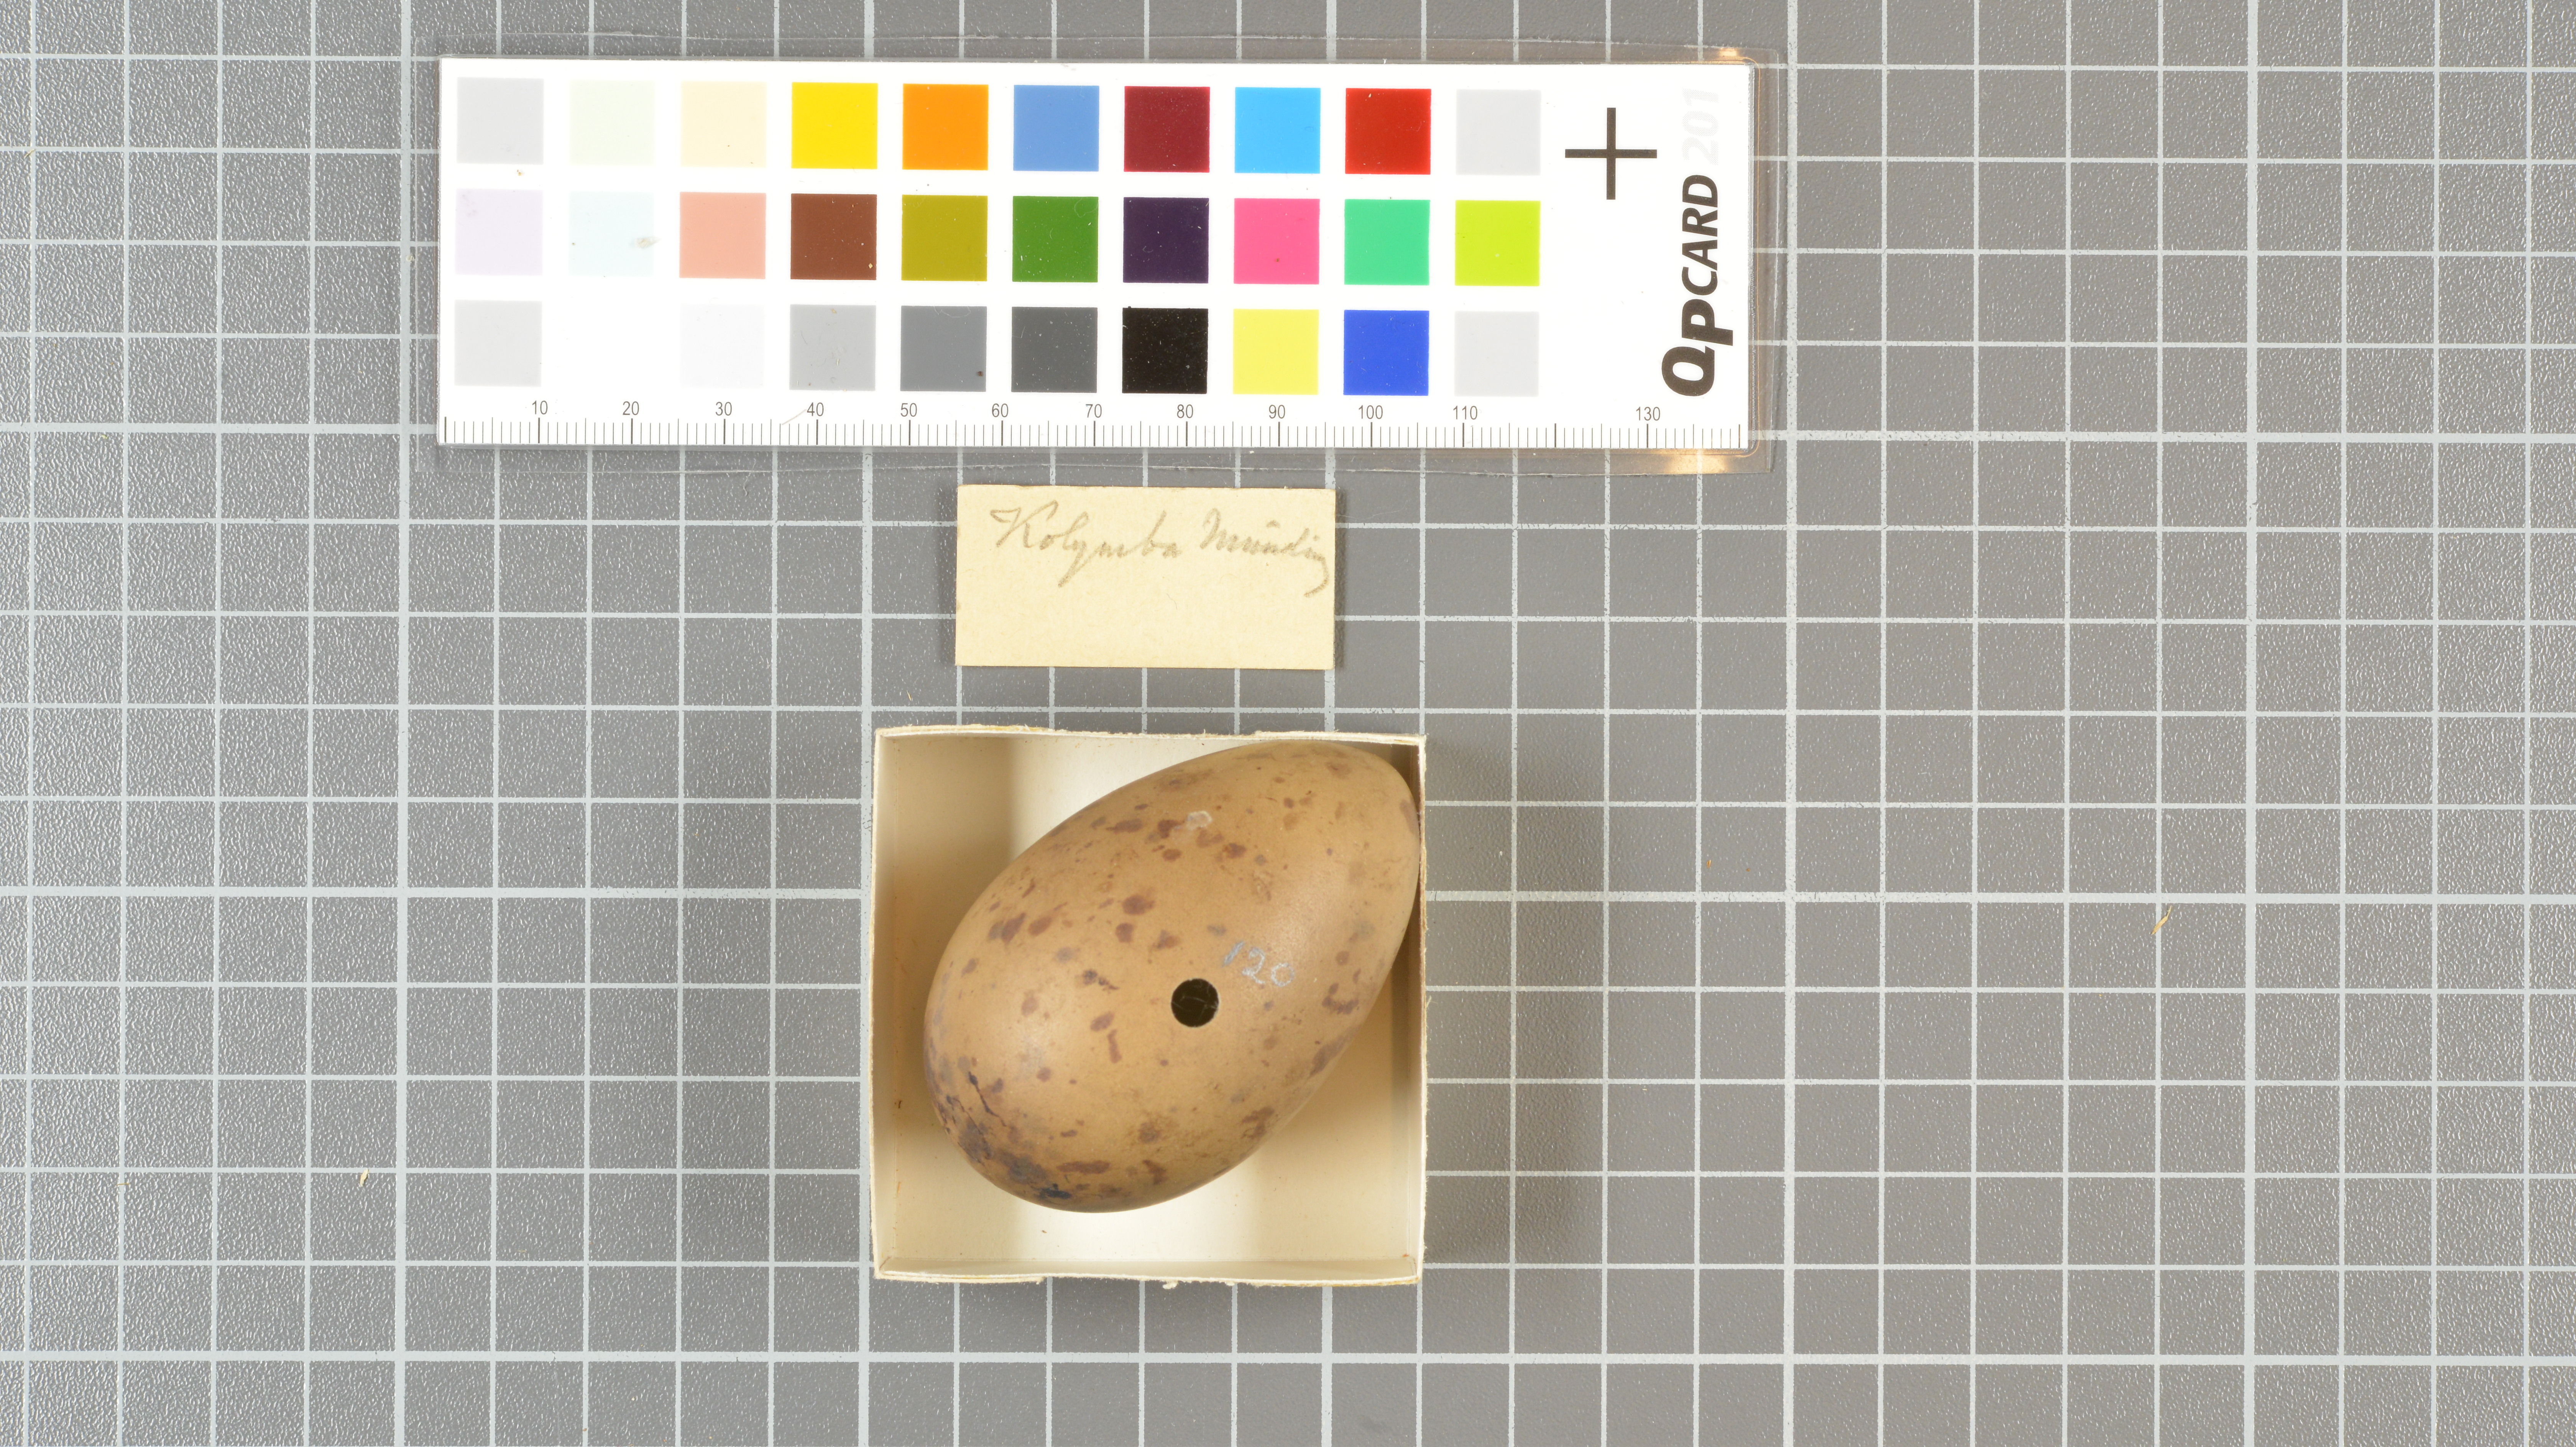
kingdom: Animalia
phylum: Chordata
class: Aves
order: Charadriiformes
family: Stercorariidae
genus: Stercorarius
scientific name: Stercorarius parasiticus
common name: Parasitic jaeger
